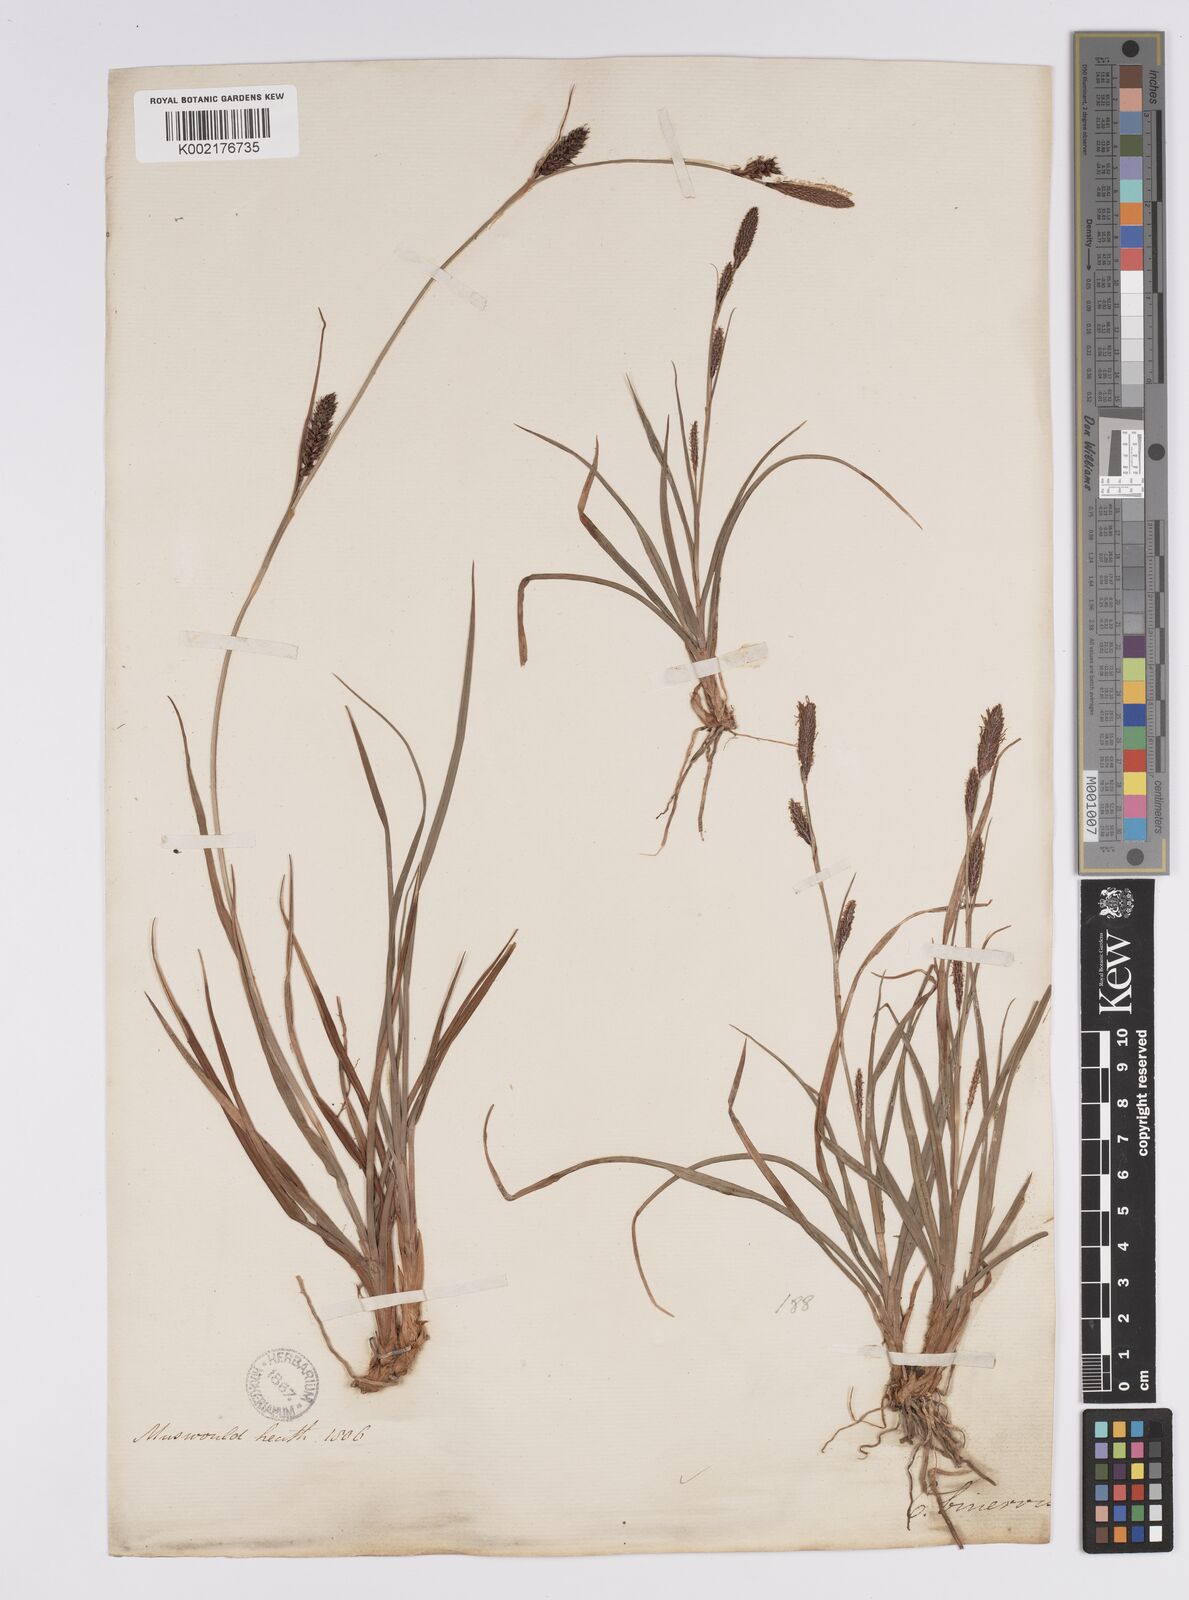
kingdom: Plantae
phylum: Tracheophyta
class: Liliopsida
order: Poales
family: Cyperaceae
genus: Carex
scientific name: Carex binervis
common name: Green-ribbed sedge
